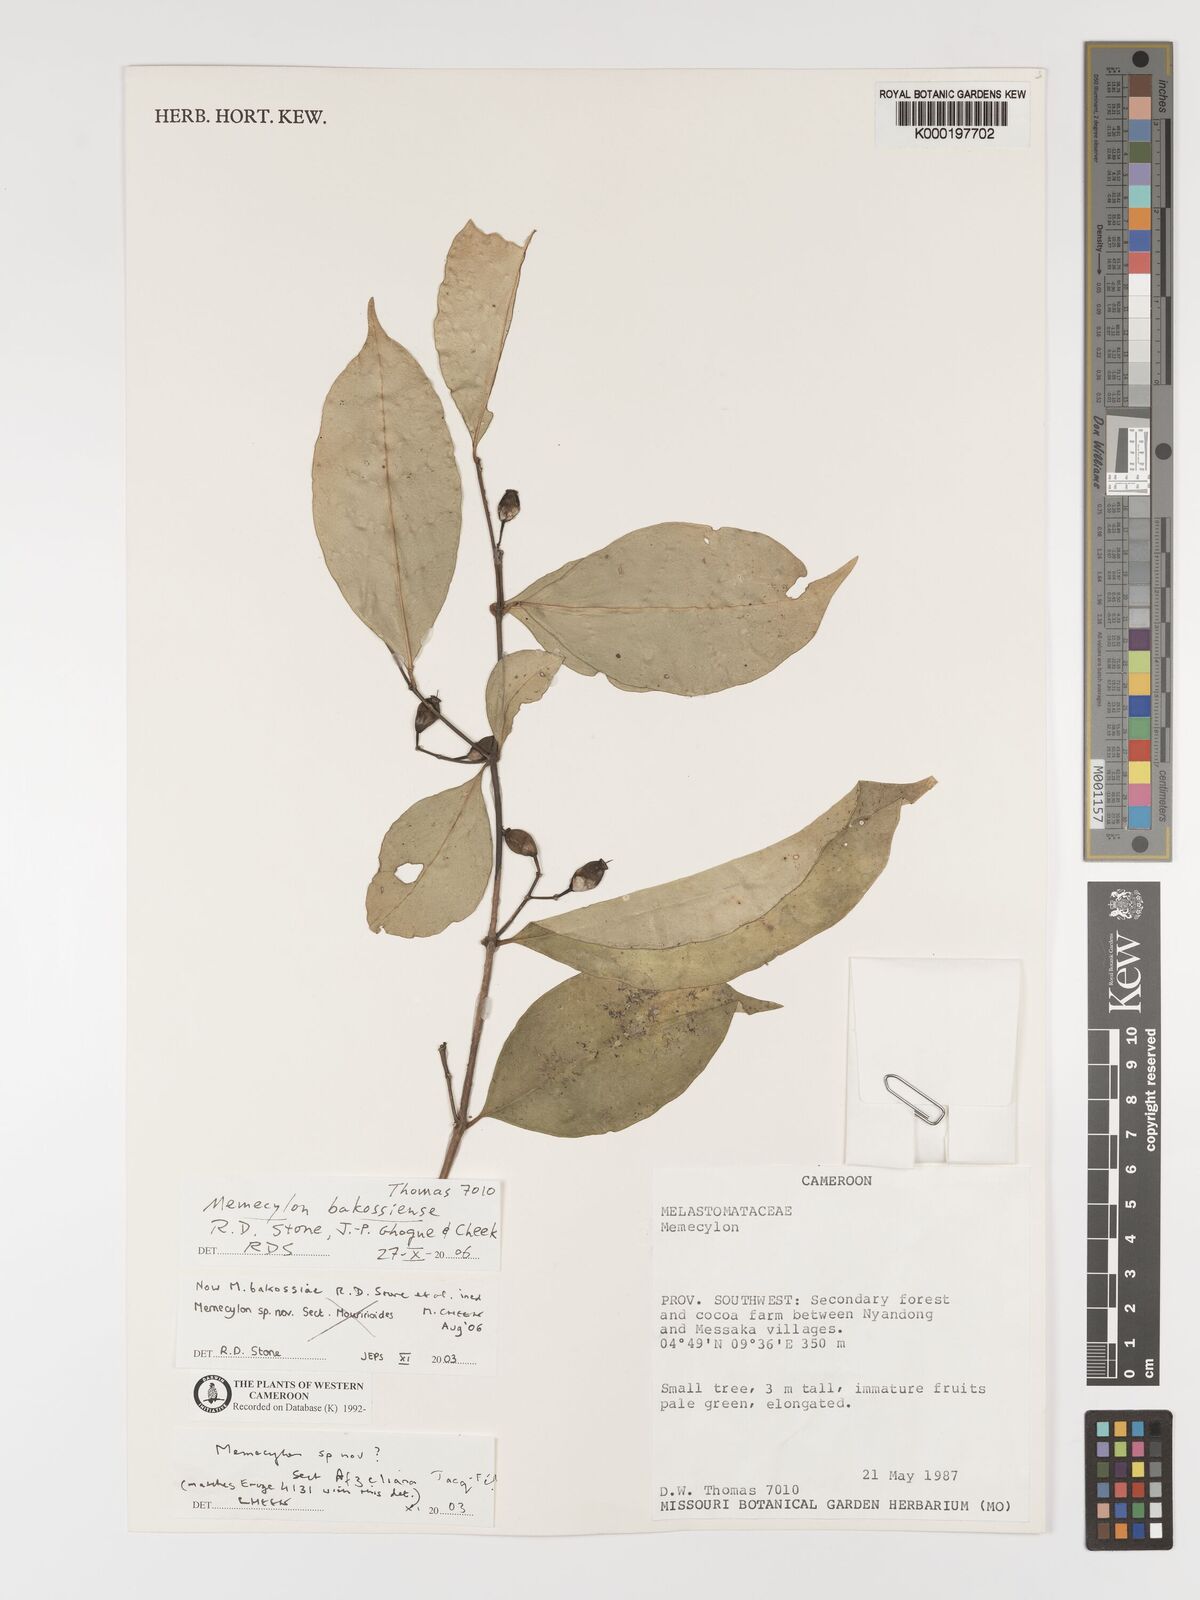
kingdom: Plantae
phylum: Tracheophyta
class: Magnoliopsida
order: Myrtales
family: Melastomataceae
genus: Memecylon
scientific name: Memecylon
